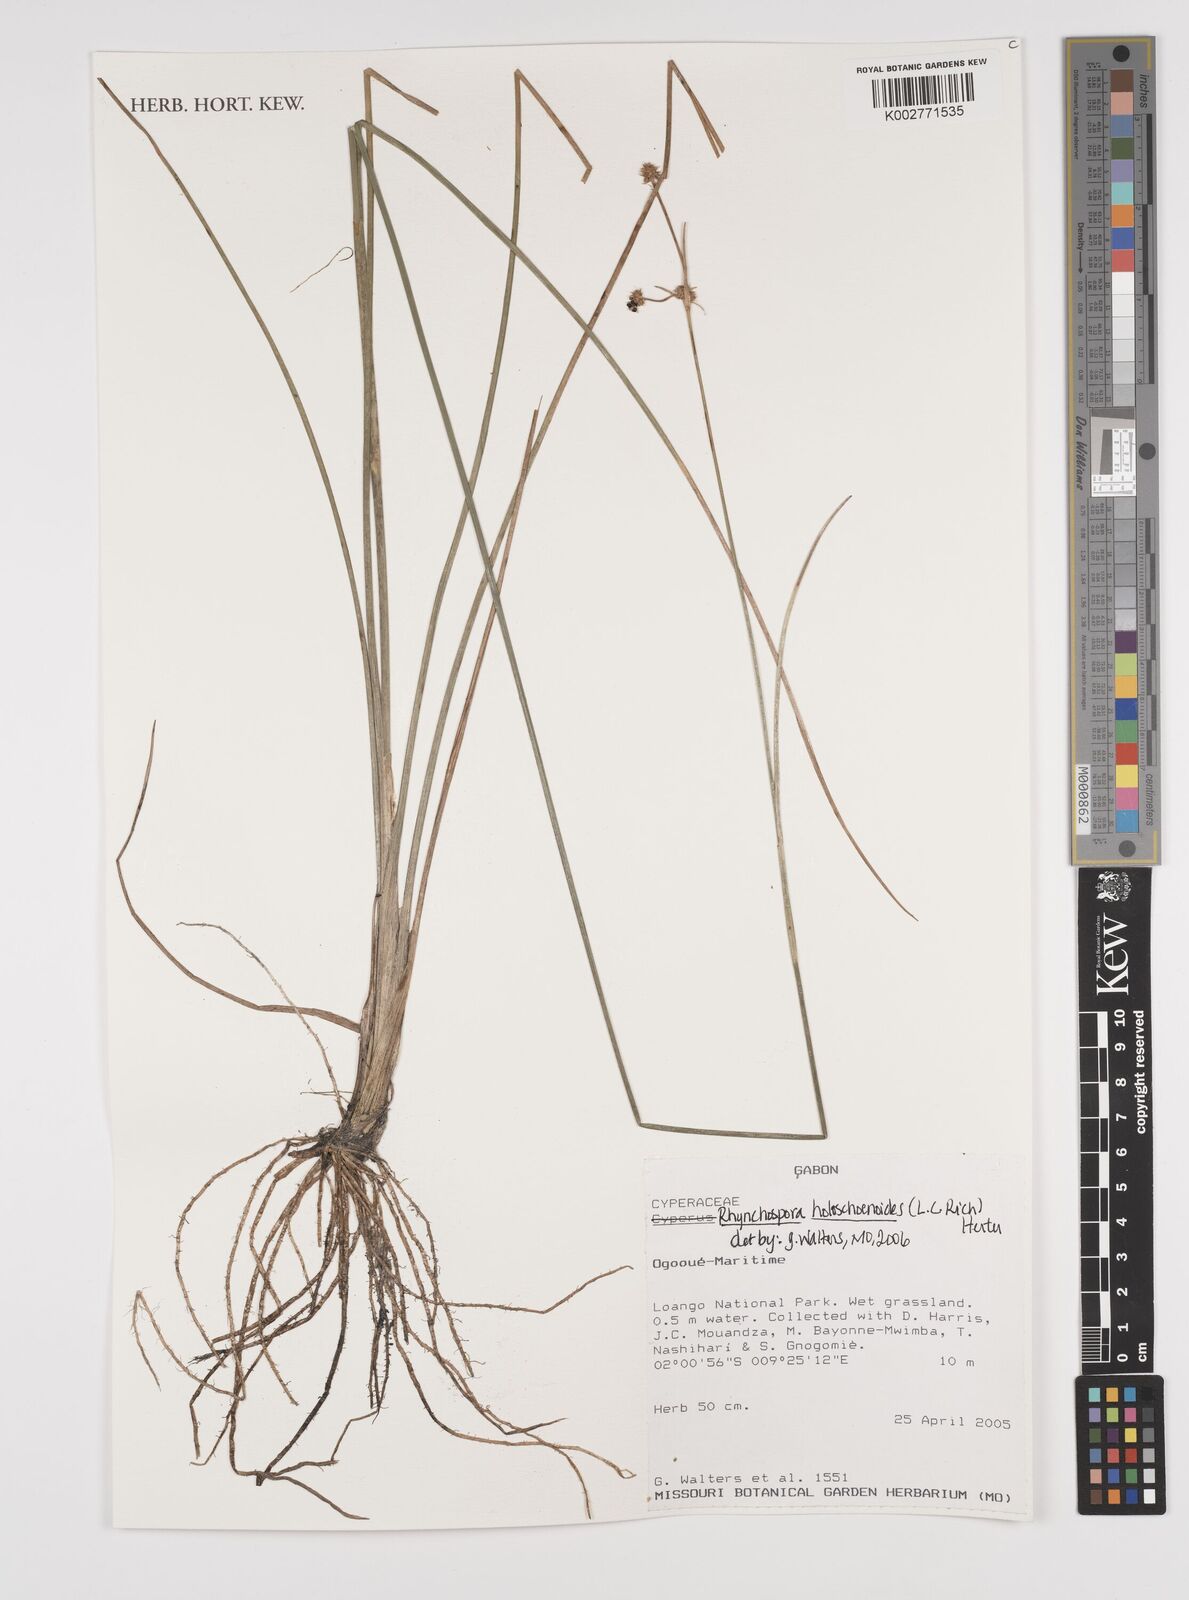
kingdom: Plantae
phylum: Tracheophyta
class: Liliopsida
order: Poales
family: Cyperaceae
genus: Rhynchospora
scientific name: Rhynchospora holoschoenoides
